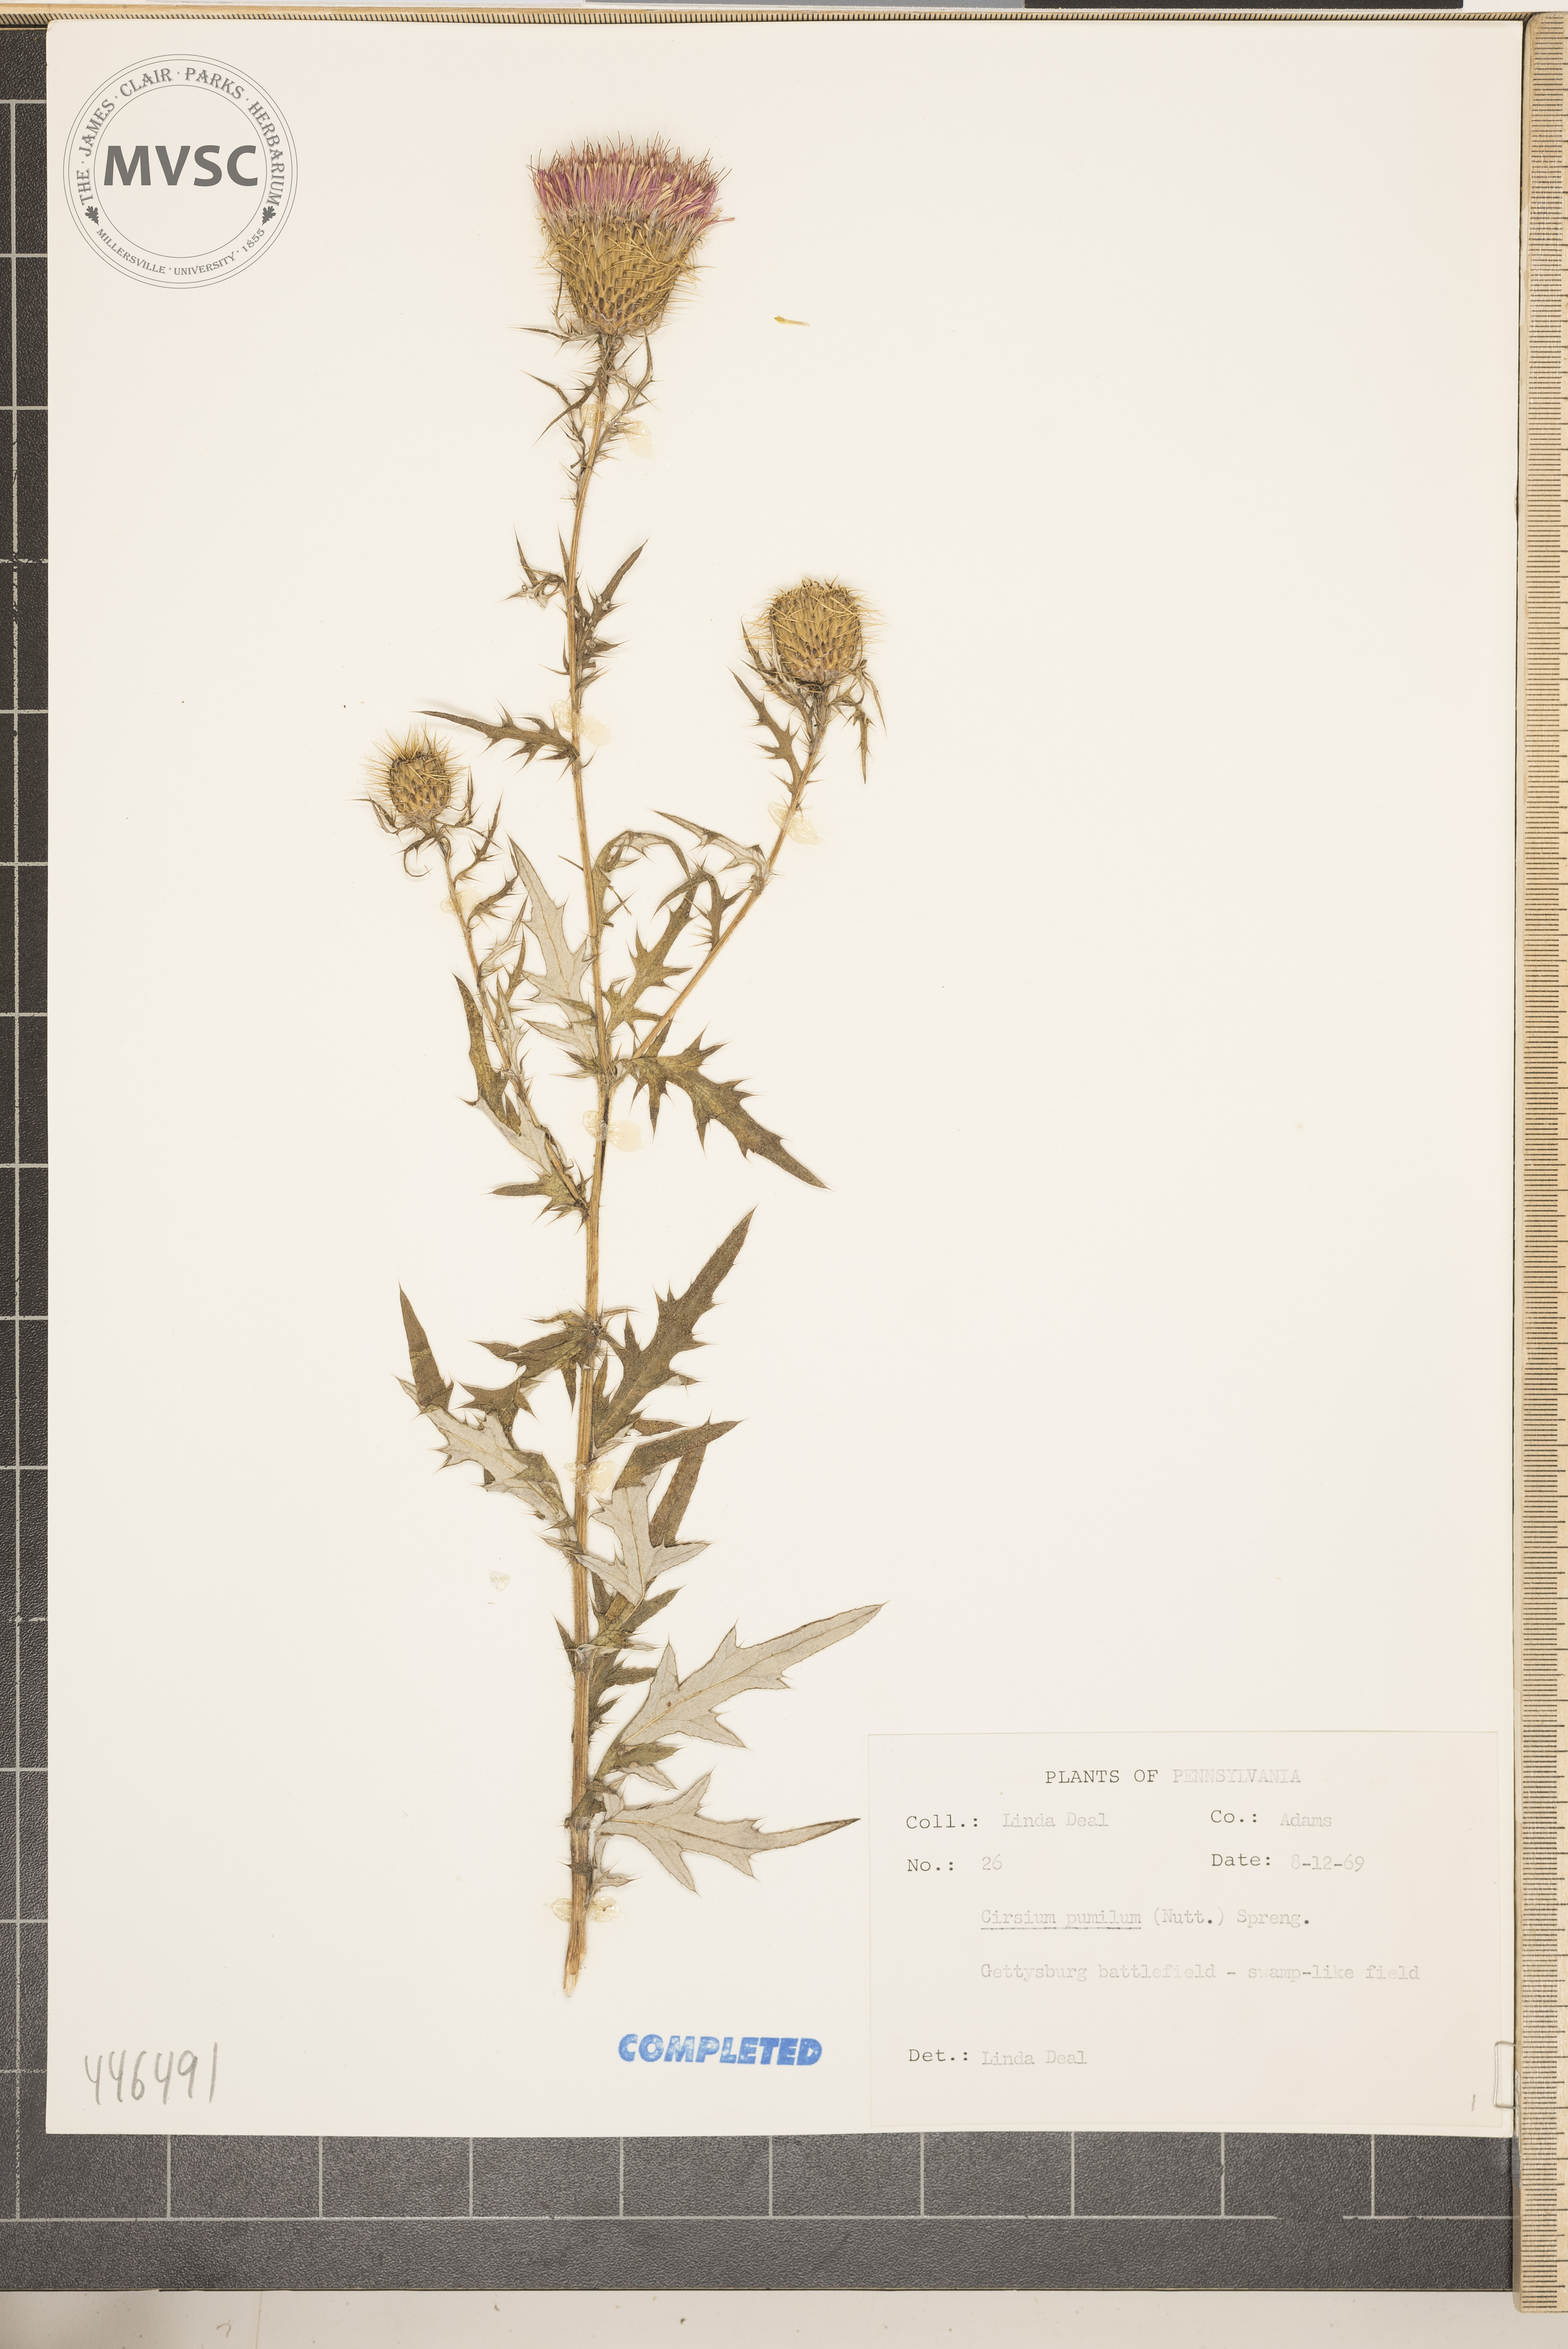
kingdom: Plantae
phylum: Tracheophyta
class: Magnoliopsida
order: Asterales
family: Asteraceae
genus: Cirsium
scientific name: Cirsium discolor
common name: Field thistle
